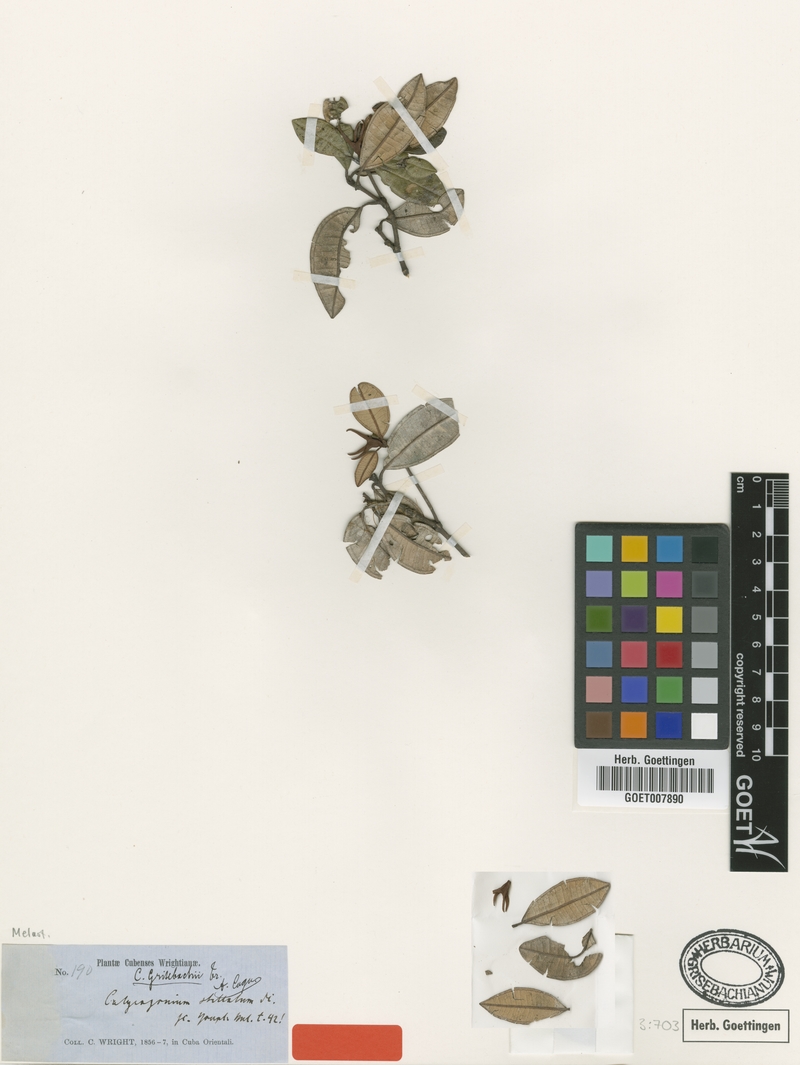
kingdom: Plantae
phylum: Tracheophyta
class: Magnoliopsida
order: Myrtales
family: Melastomataceae
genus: Miconia
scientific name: Miconia grisebachiana
